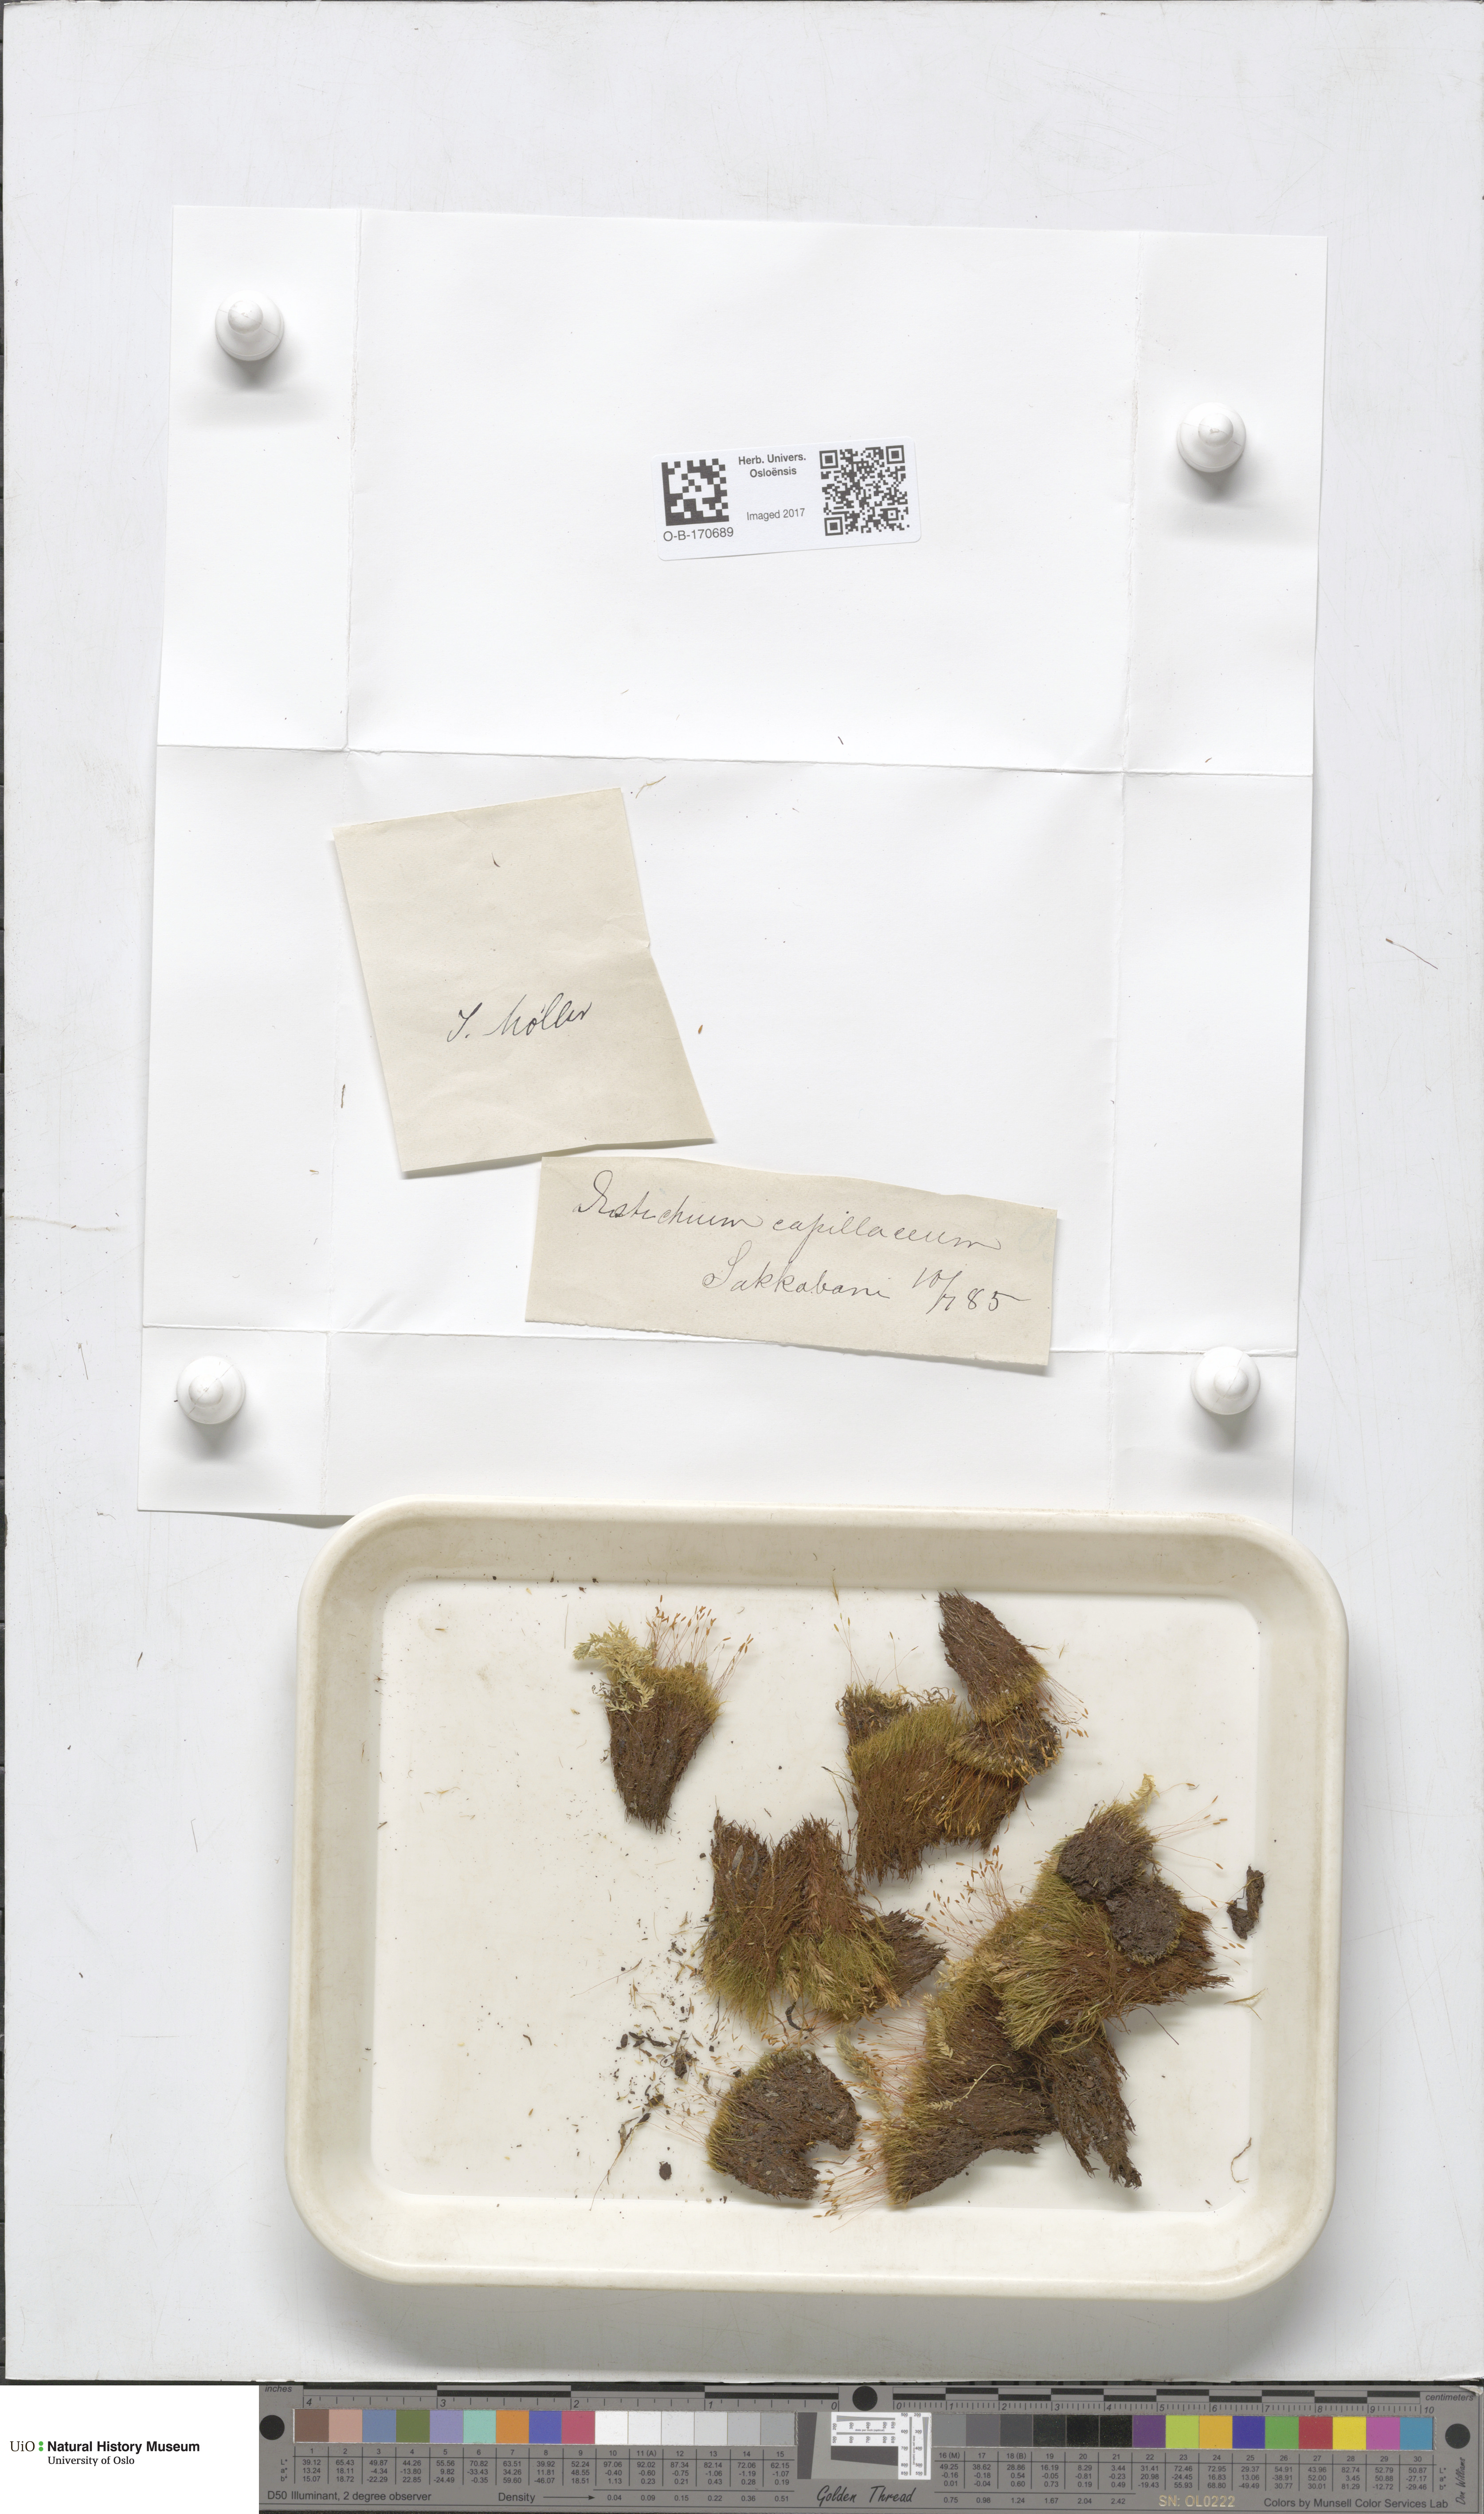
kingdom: Plantae
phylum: Bryophyta
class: Bryopsida
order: Scouleriales
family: Distichiaceae
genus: Distichium
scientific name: Distichium capillaceum
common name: Erect-fruited iris moss
